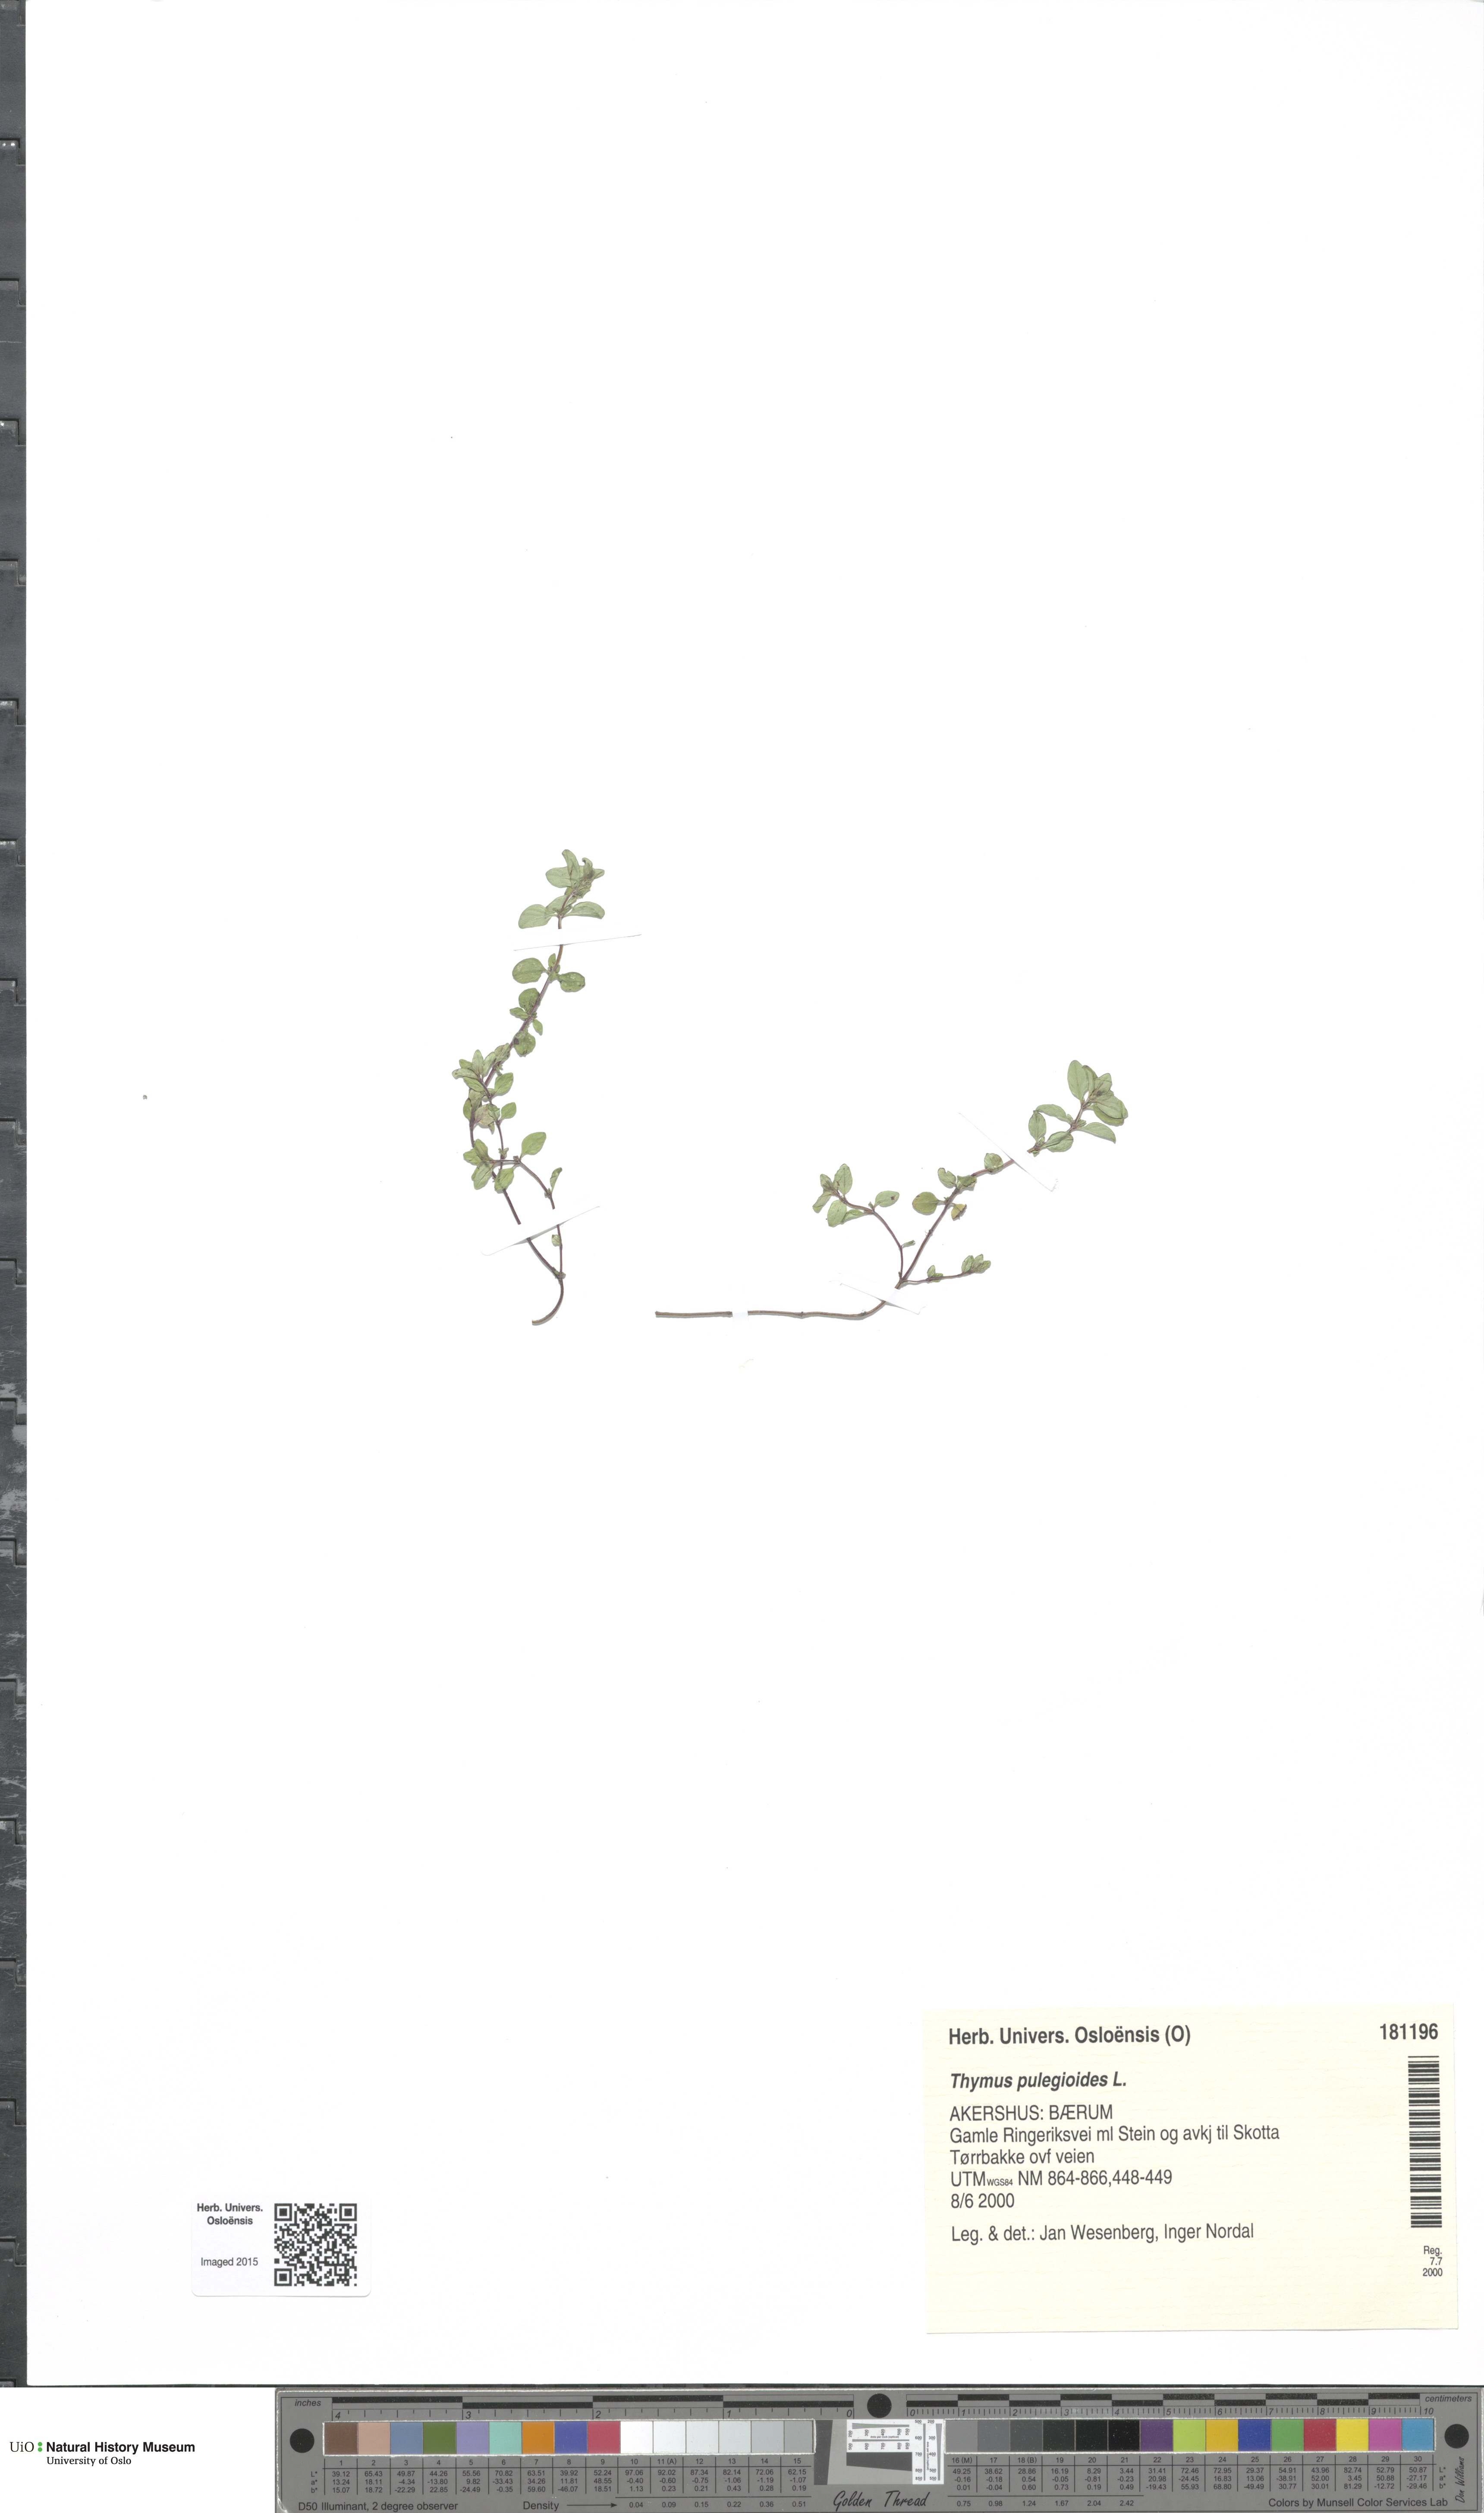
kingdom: Plantae
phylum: Tracheophyta
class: Magnoliopsida
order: Lamiales
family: Lamiaceae
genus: Thymus
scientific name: Thymus pulegioides
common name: Large thyme
